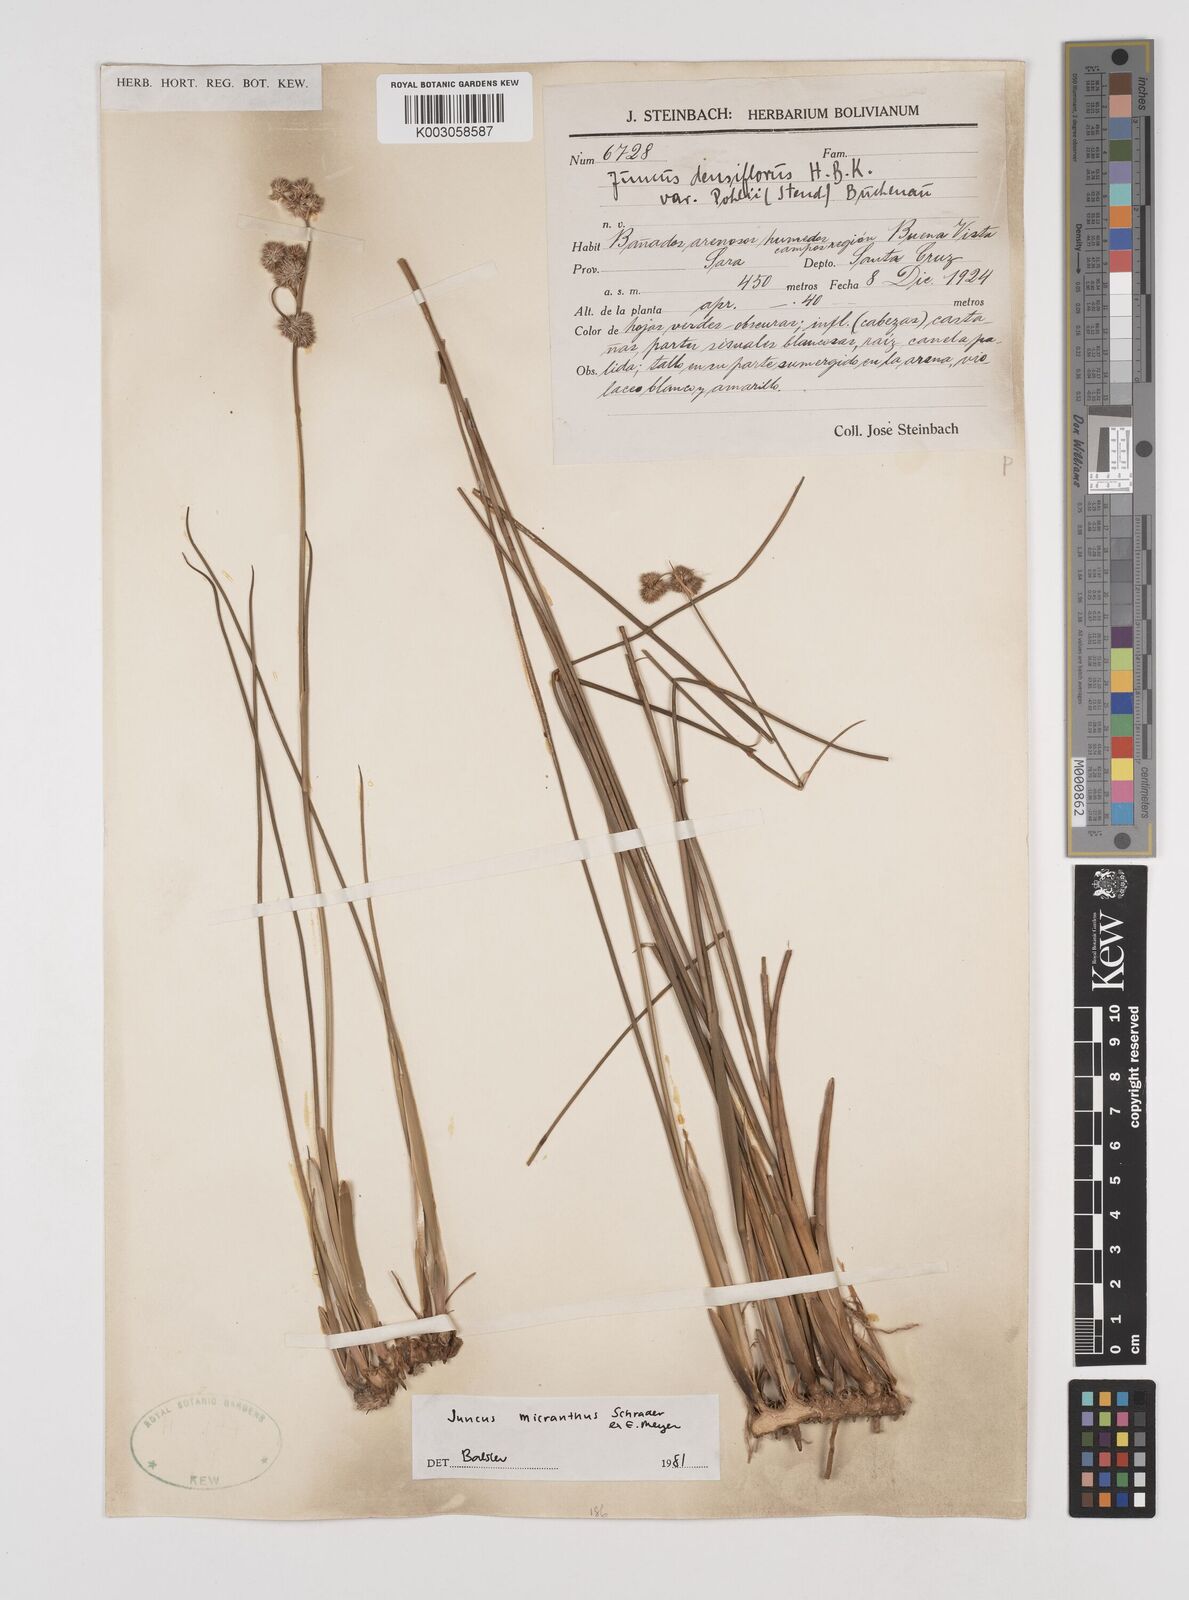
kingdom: Plantae
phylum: Tracheophyta
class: Liliopsida
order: Poales
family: Juncaceae
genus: Juncus
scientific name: Juncus micranthus
